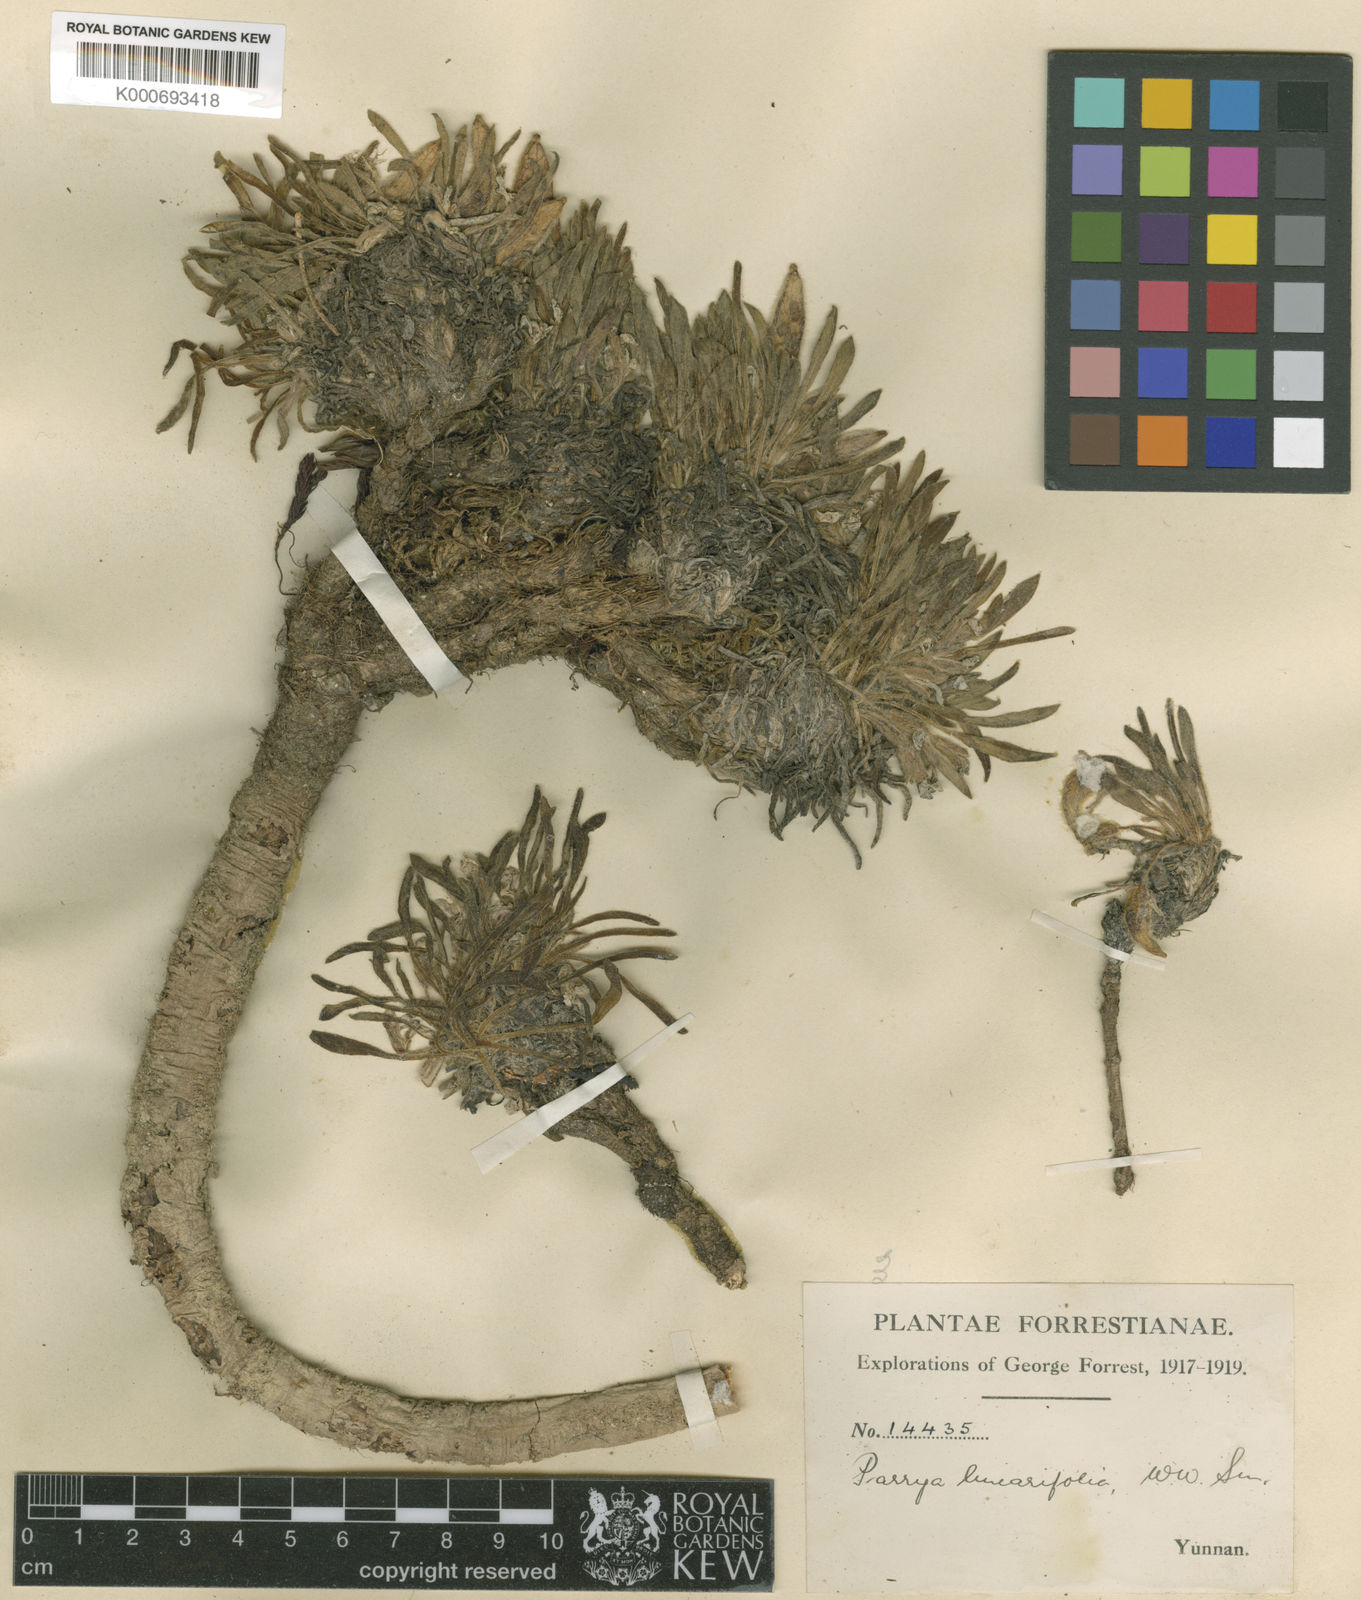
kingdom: Plantae
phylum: Tracheophyta
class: Magnoliopsida
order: Brassicales
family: Brassicaceae
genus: Solms-laubachia
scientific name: Solms-laubachia linearifolia
